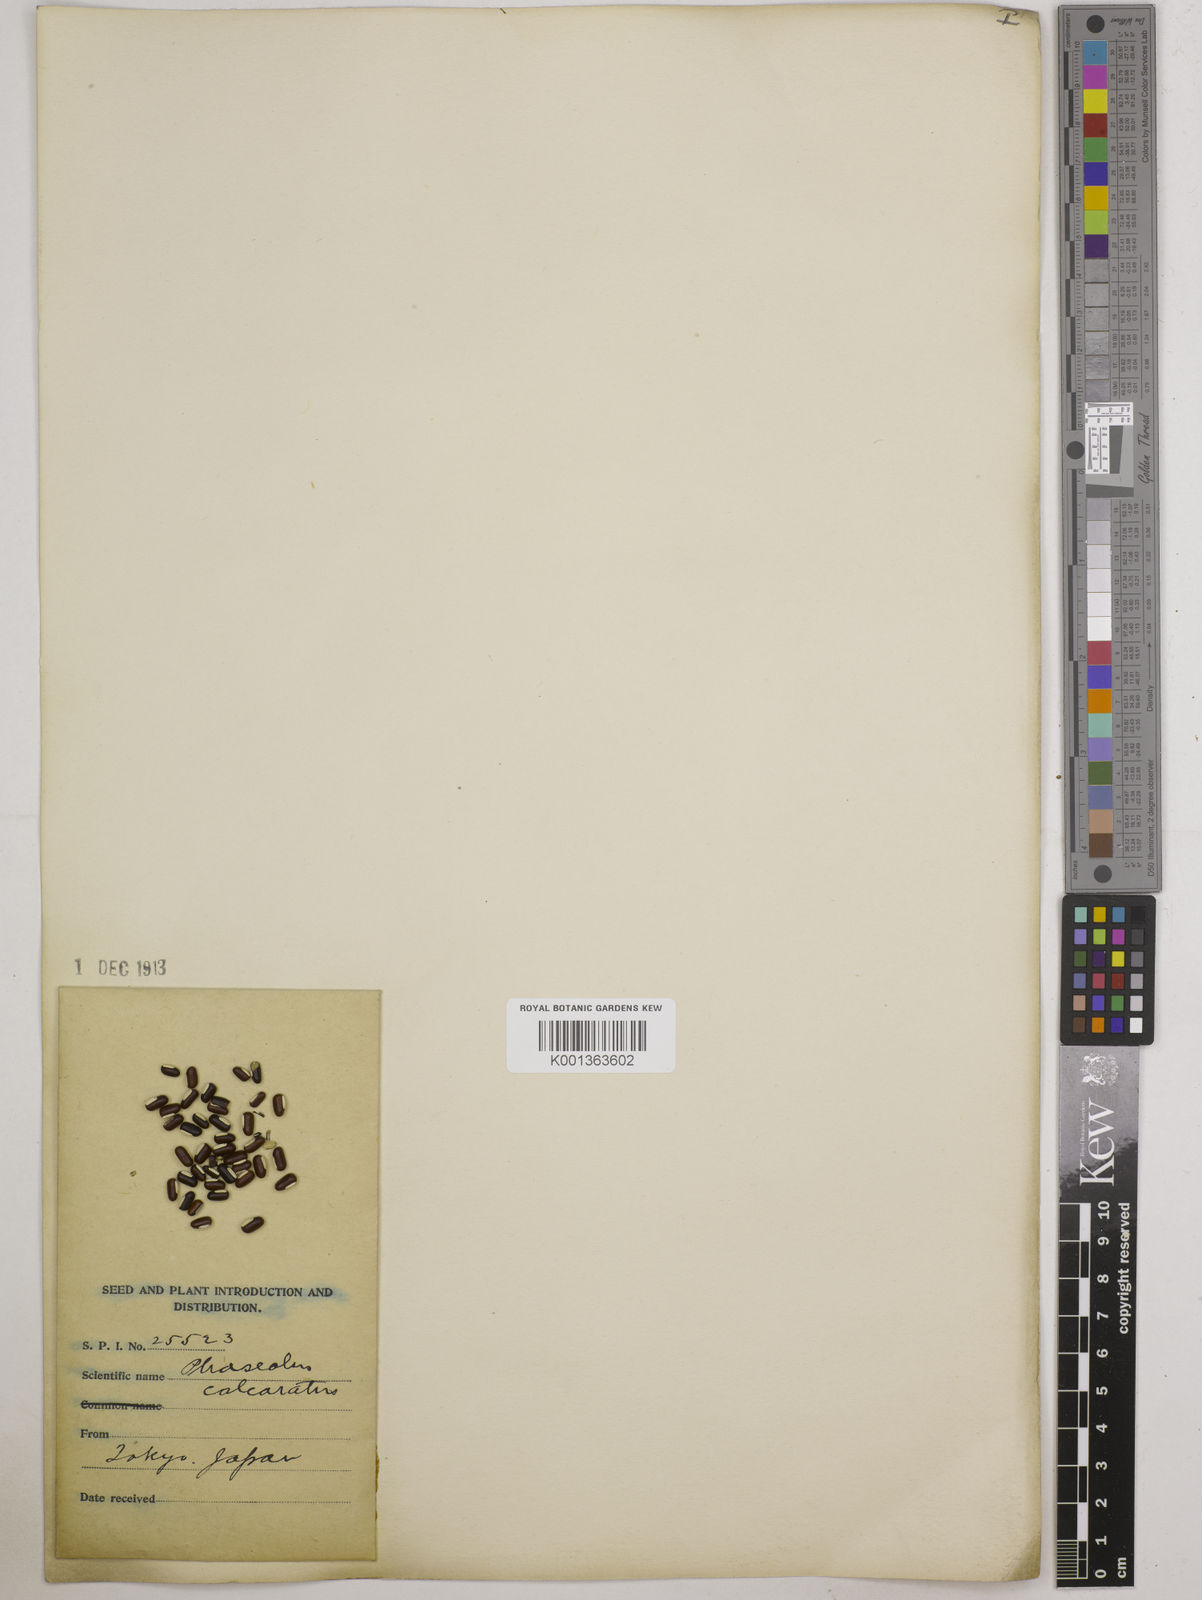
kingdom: Plantae
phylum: Tracheophyta
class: Magnoliopsida
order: Fabales
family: Fabaceae
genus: Vigna
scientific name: Vigna umbellata
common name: Oriental-bean
